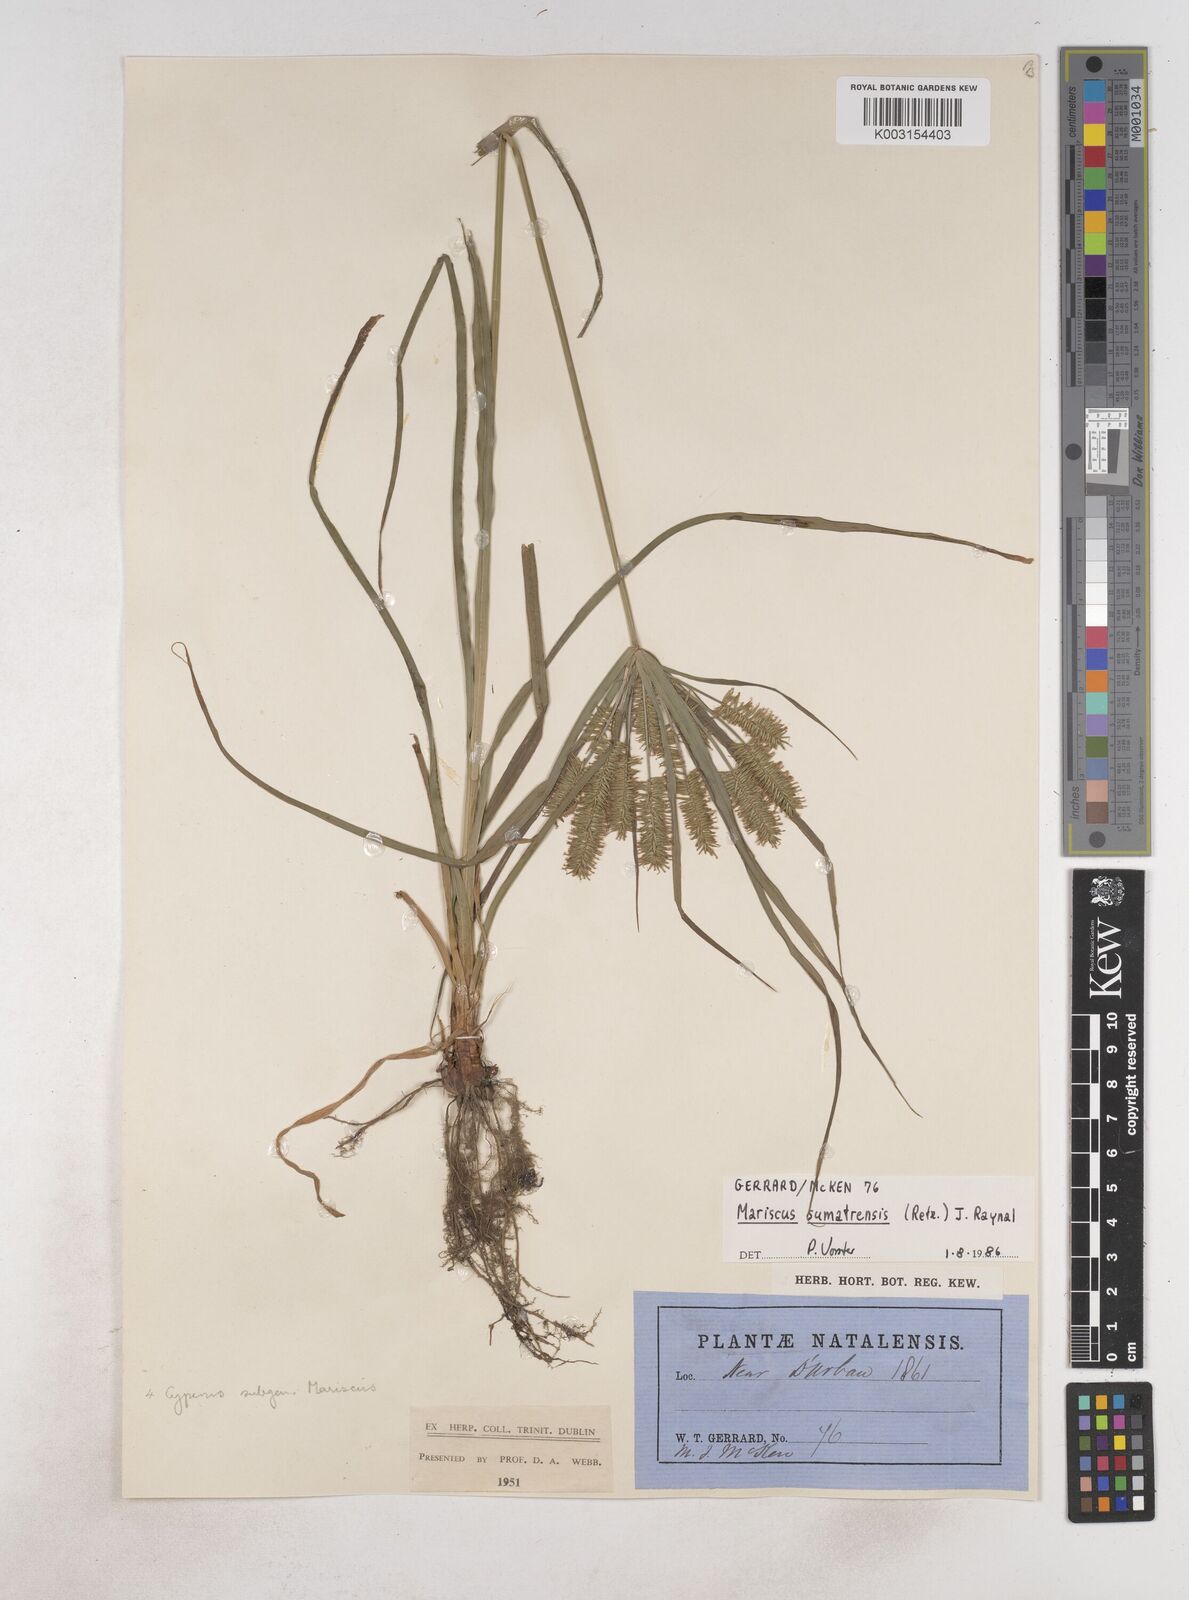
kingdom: Plantae
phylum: Tracheophyta
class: Liliopsida
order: Poales
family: Cyperaceae
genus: Cyperus
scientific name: Cyperus cyperoides
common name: Pacific island flat sedge
